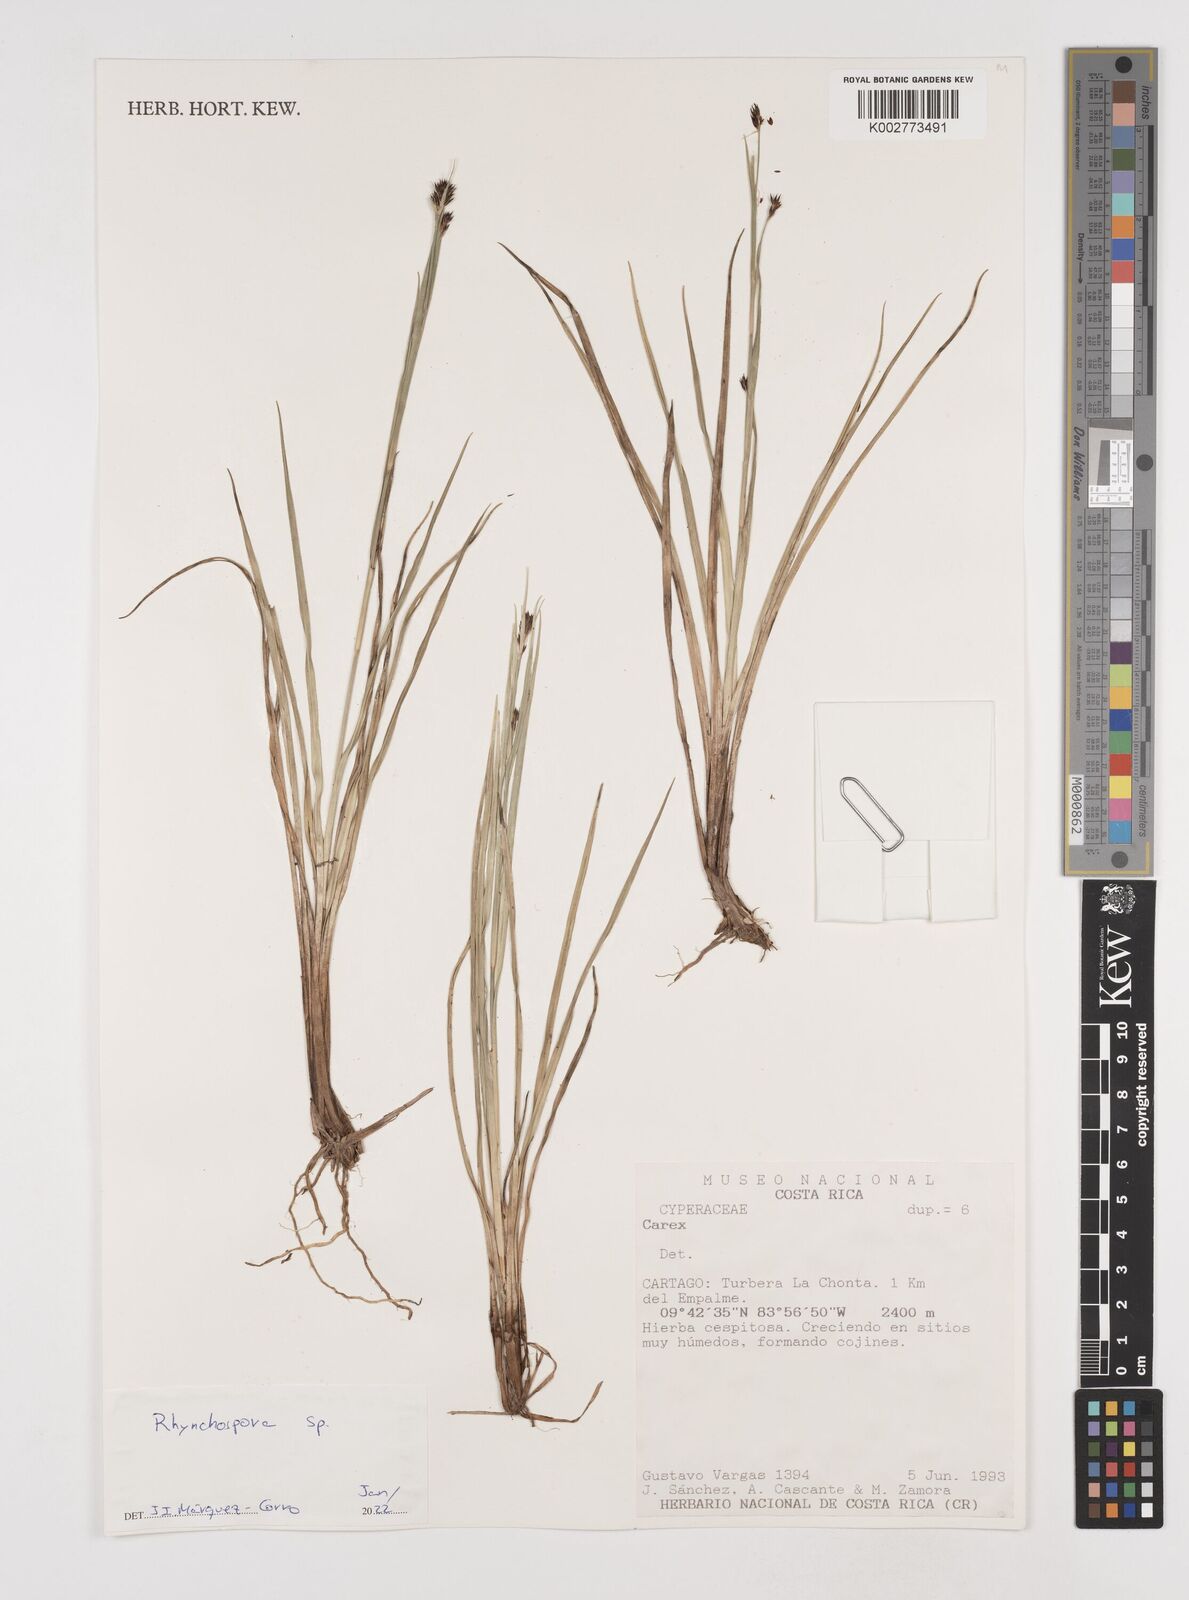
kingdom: Plantae
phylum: Tracheophyta
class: Liliopsida
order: Poales
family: Cyperaceae
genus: Rhynchospora
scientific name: Rhynchospora
